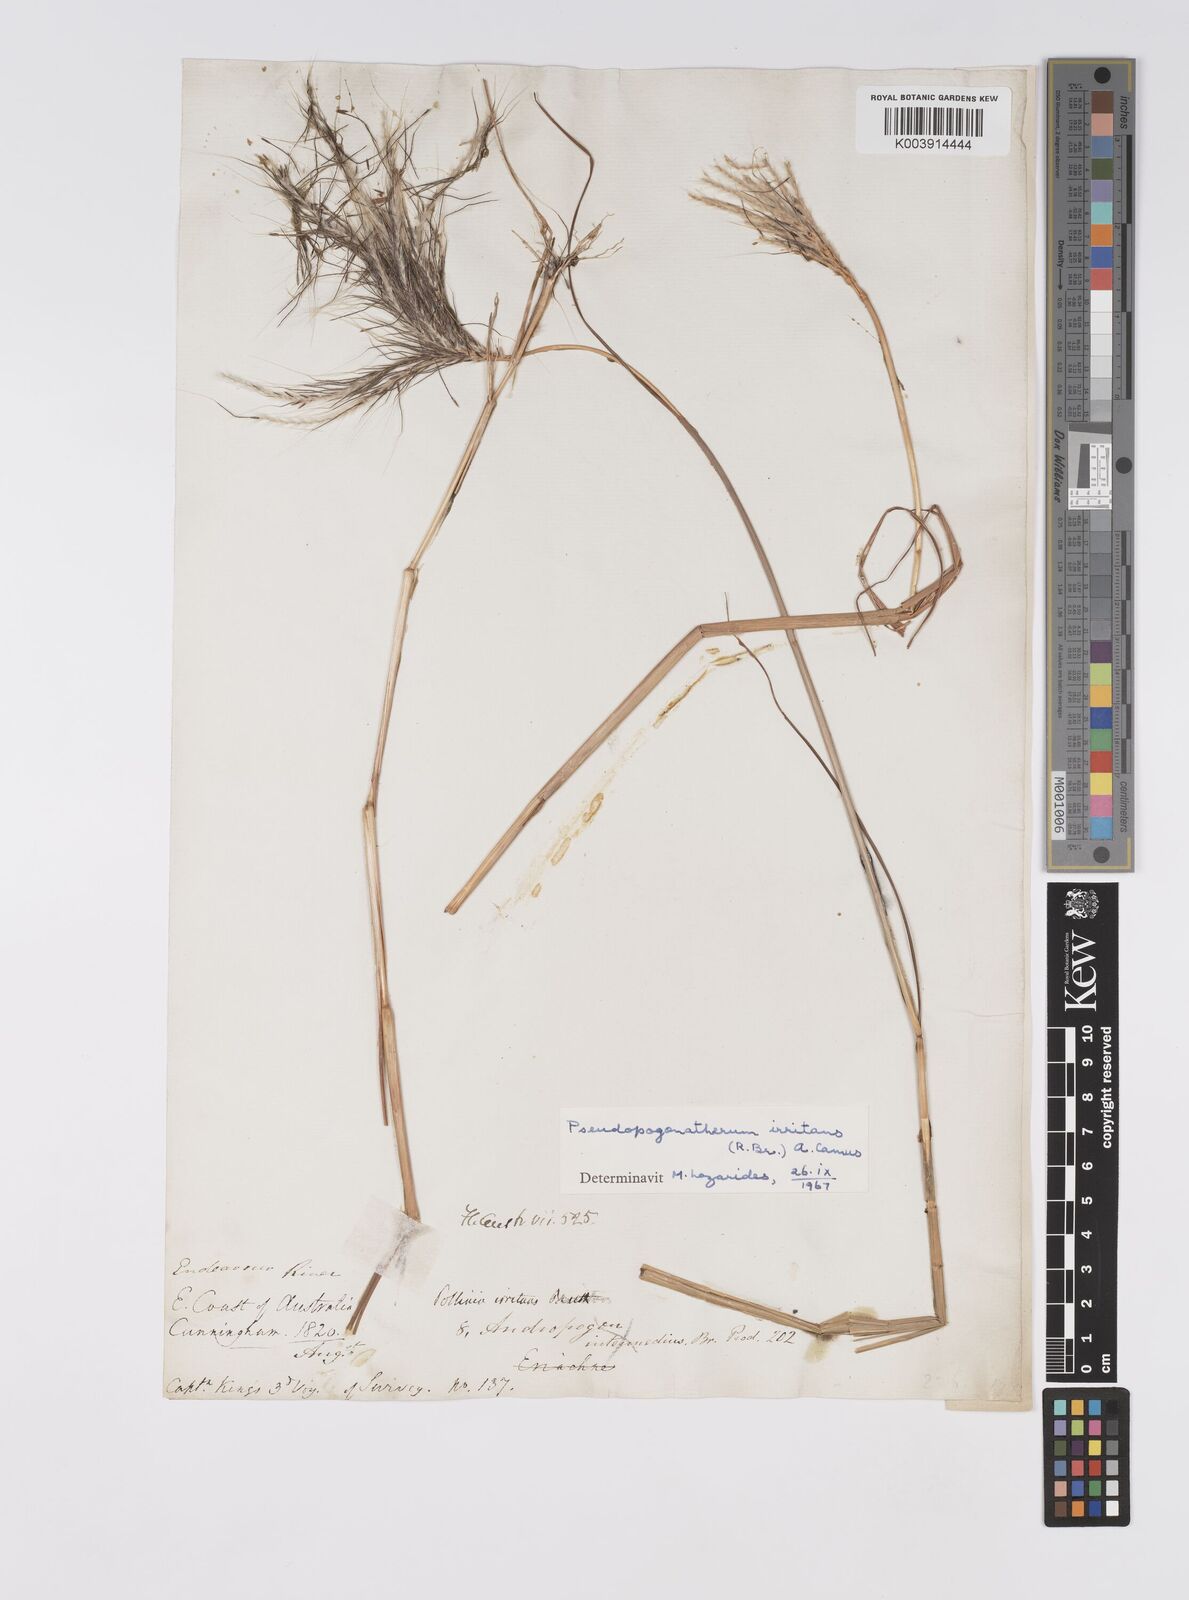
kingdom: Plantae
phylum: Tracheophyta
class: Liliopsida
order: Poales
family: Poaceae
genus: Pseudopogonatherum
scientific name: Pseudopogonatherum irritans
